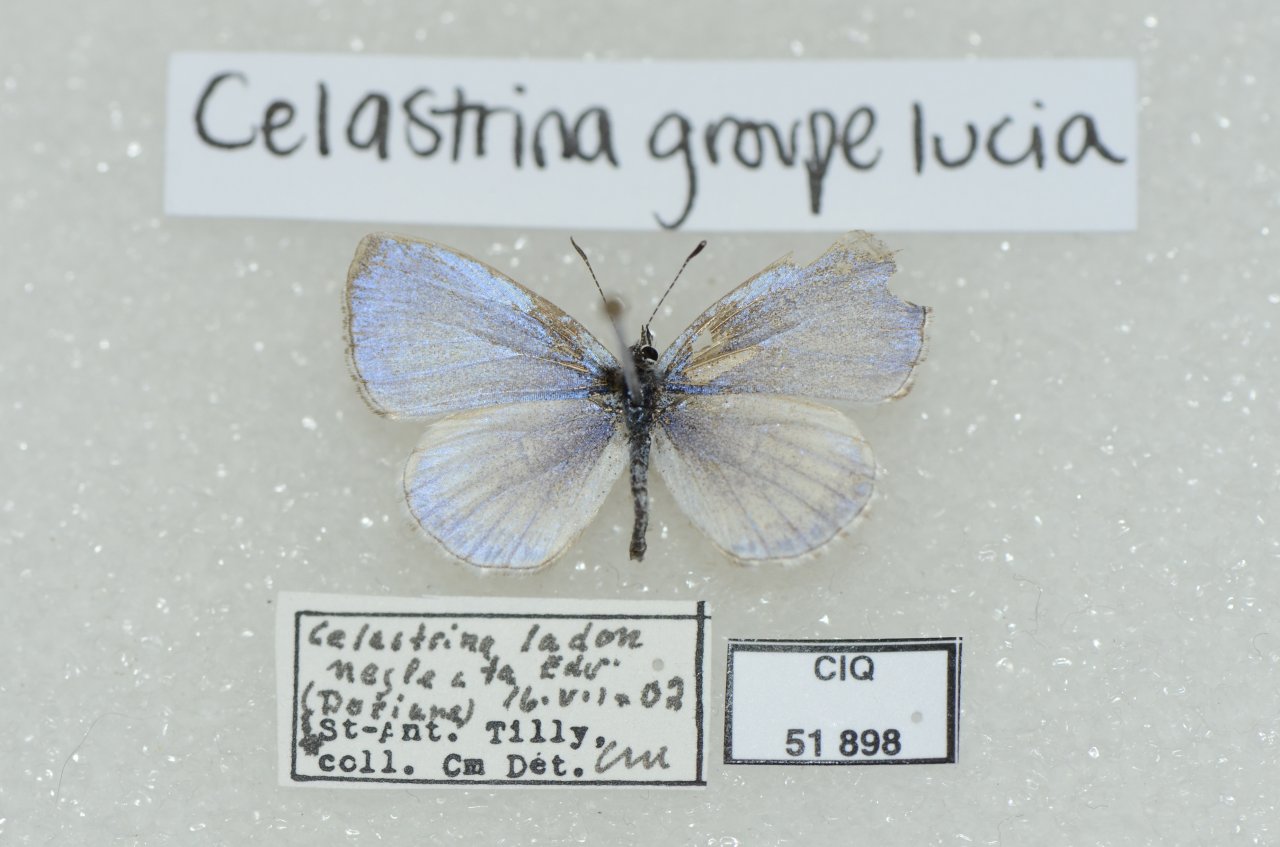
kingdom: Animalia
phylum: Arthropoda
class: Insecta
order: Lepidoptera
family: Lycaenidae
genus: Celastrina
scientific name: Celastrina lucia
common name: Northern Spring Azure
